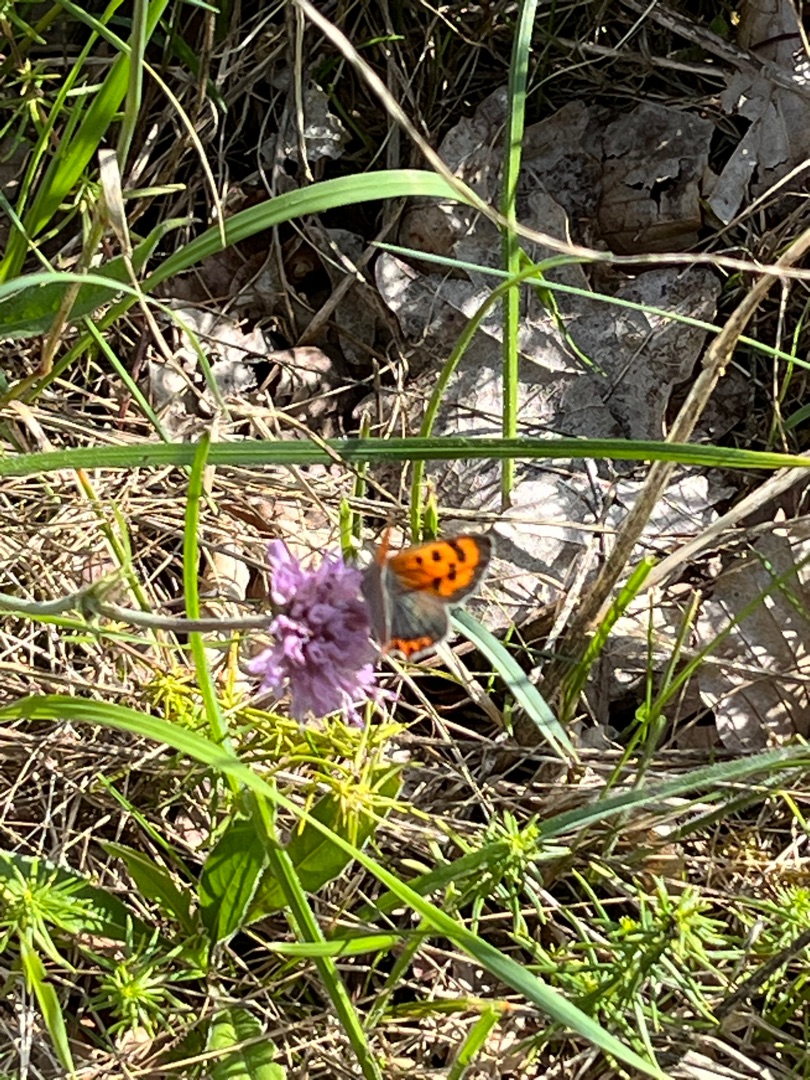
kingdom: Animalia
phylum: Arthropoda
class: Insecta
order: Lepidoptera
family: Lycaenidae
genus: Lycaena
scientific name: Lycaena phlaeas
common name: Lille ildfugl
